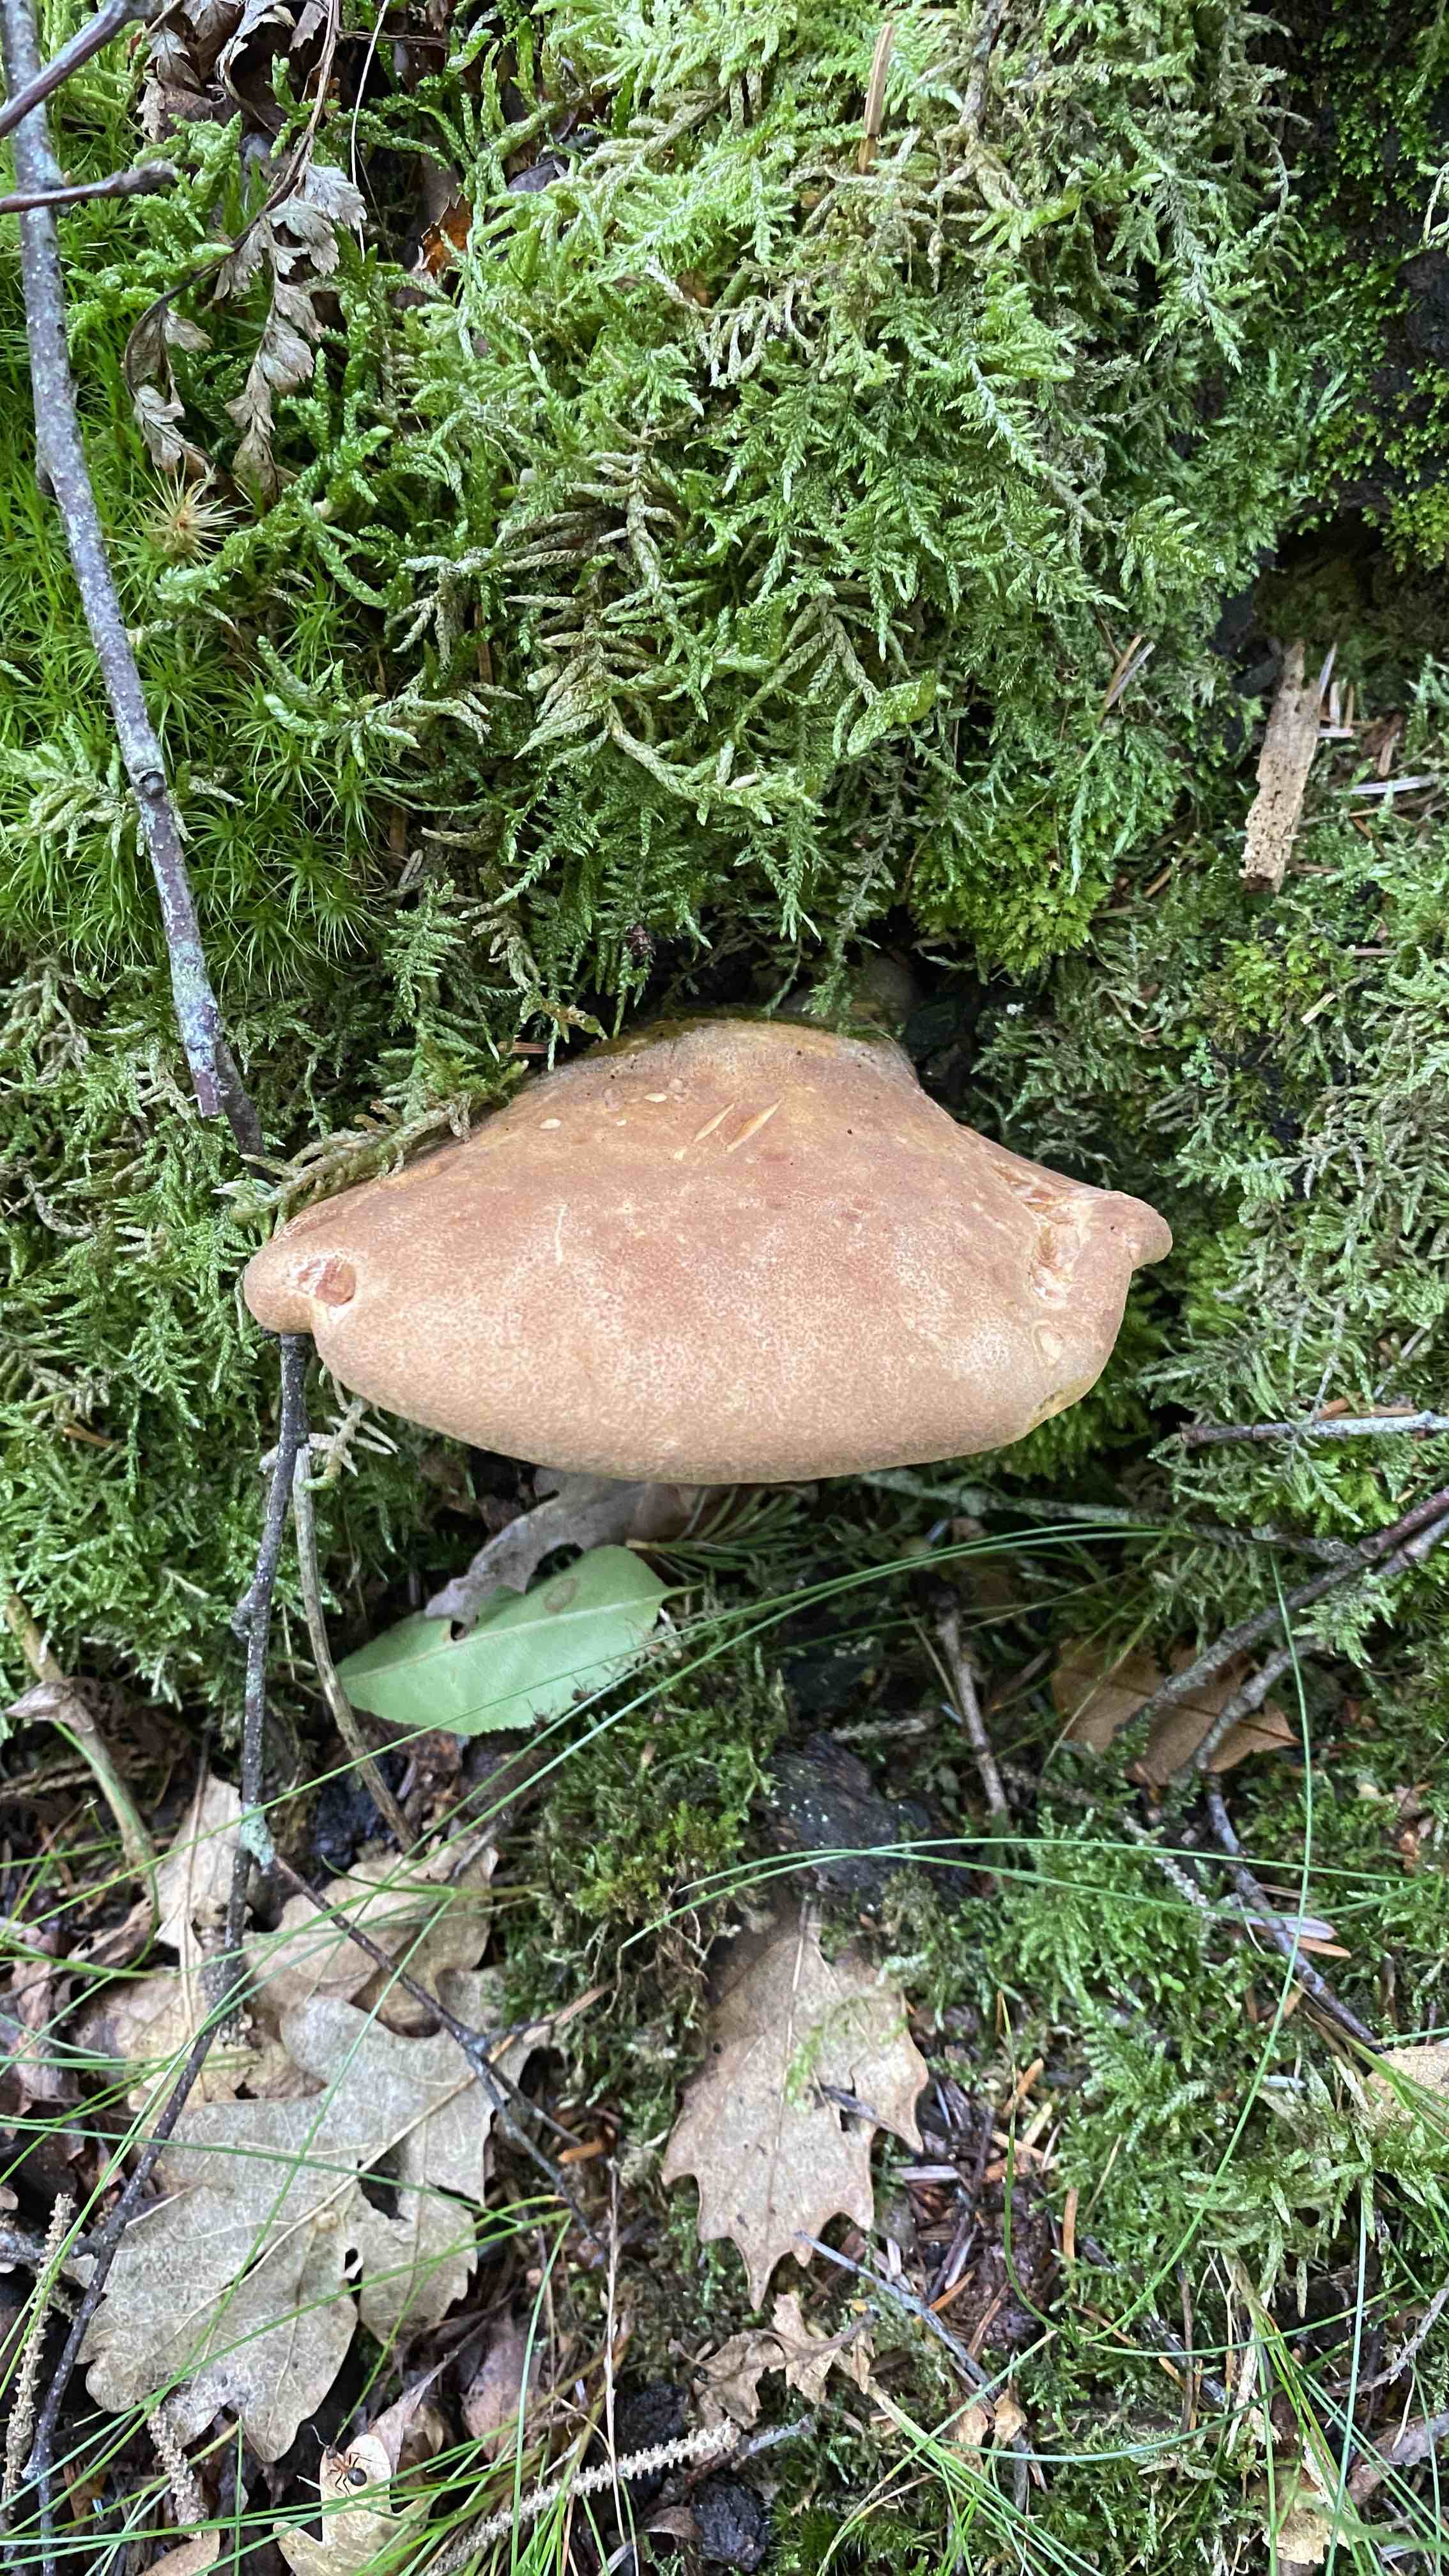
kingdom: Fungi
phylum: Basidiomycota
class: Agaricomycetes
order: Boletales
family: Tapinellaceae
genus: Tapinella
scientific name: Tapinella atrotomentosa
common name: sortfiltet viftesvamp
